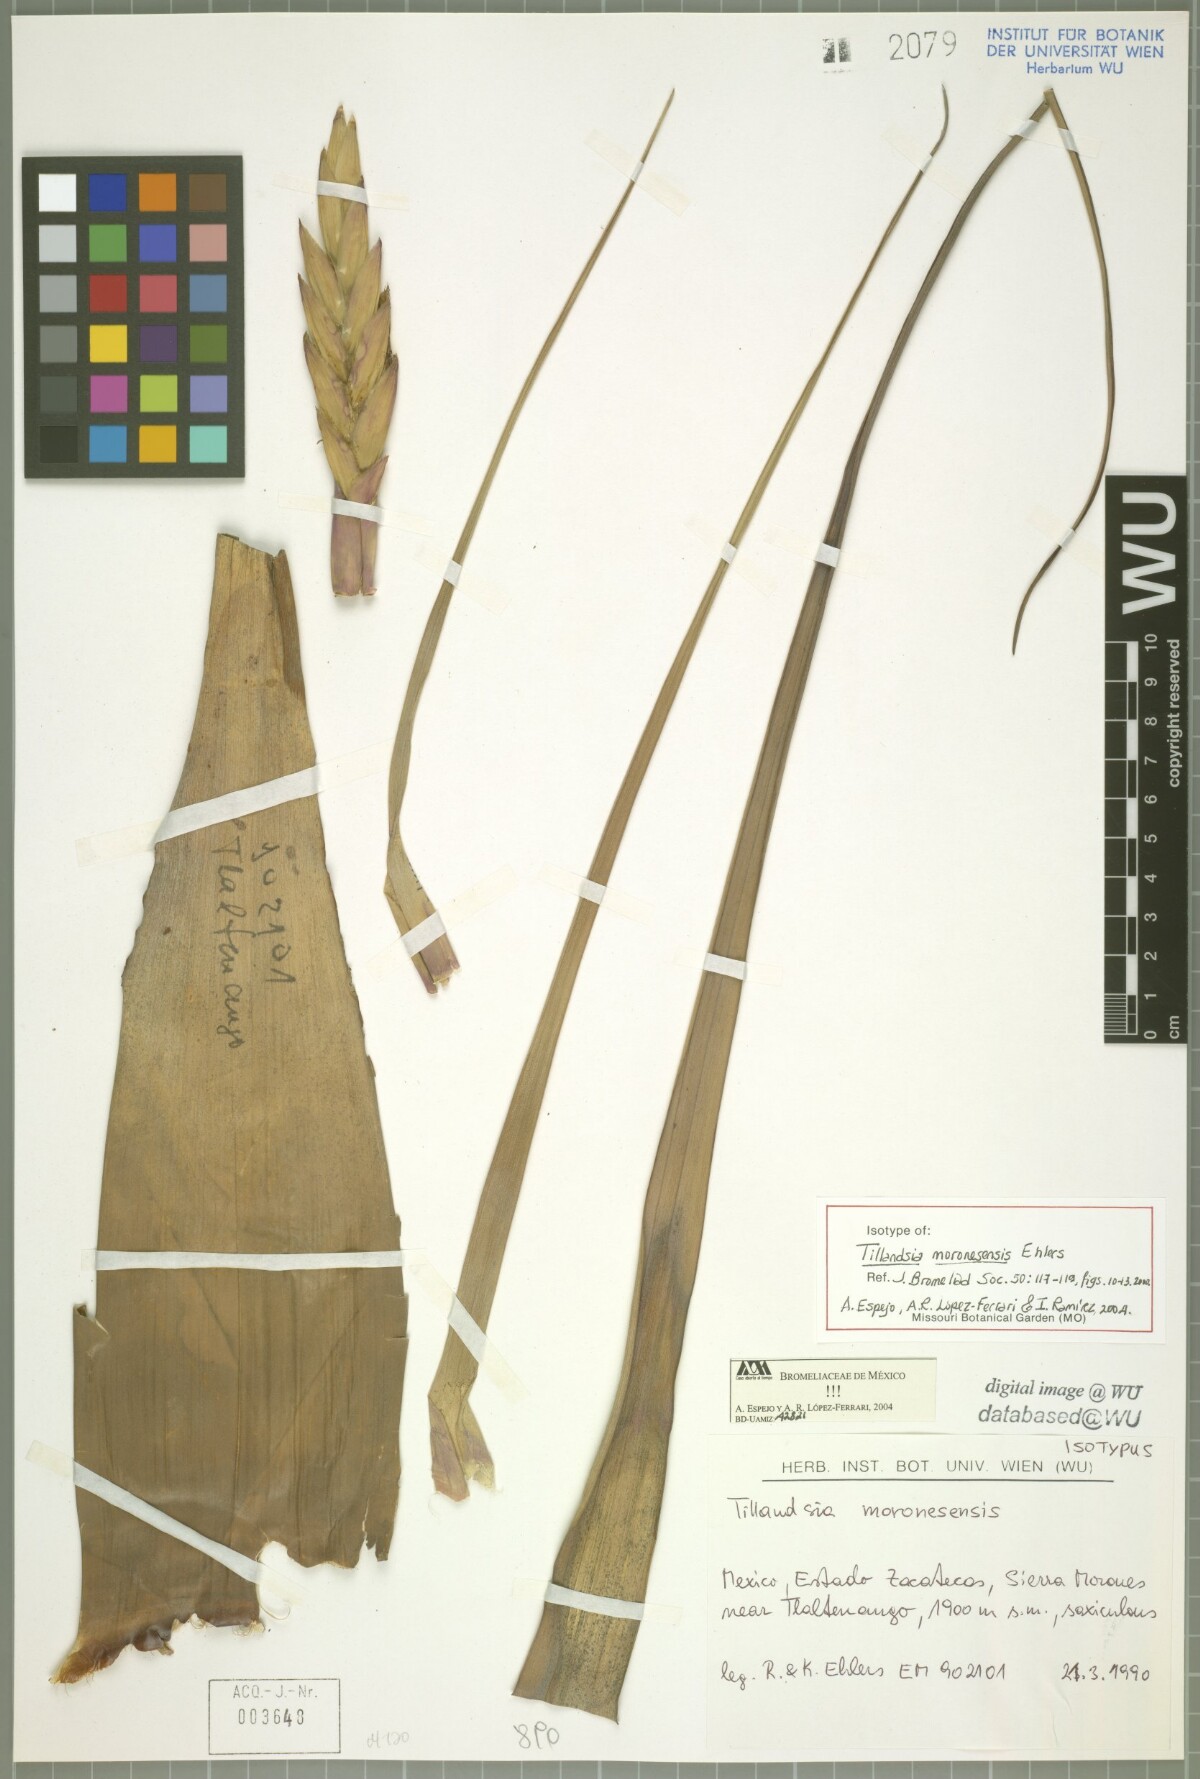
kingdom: Plantae
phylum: Tracheophyta
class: Liliopsida
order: Poales
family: Bromeliaceae
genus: Tillandsia
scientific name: Tillandsia moronesensis
